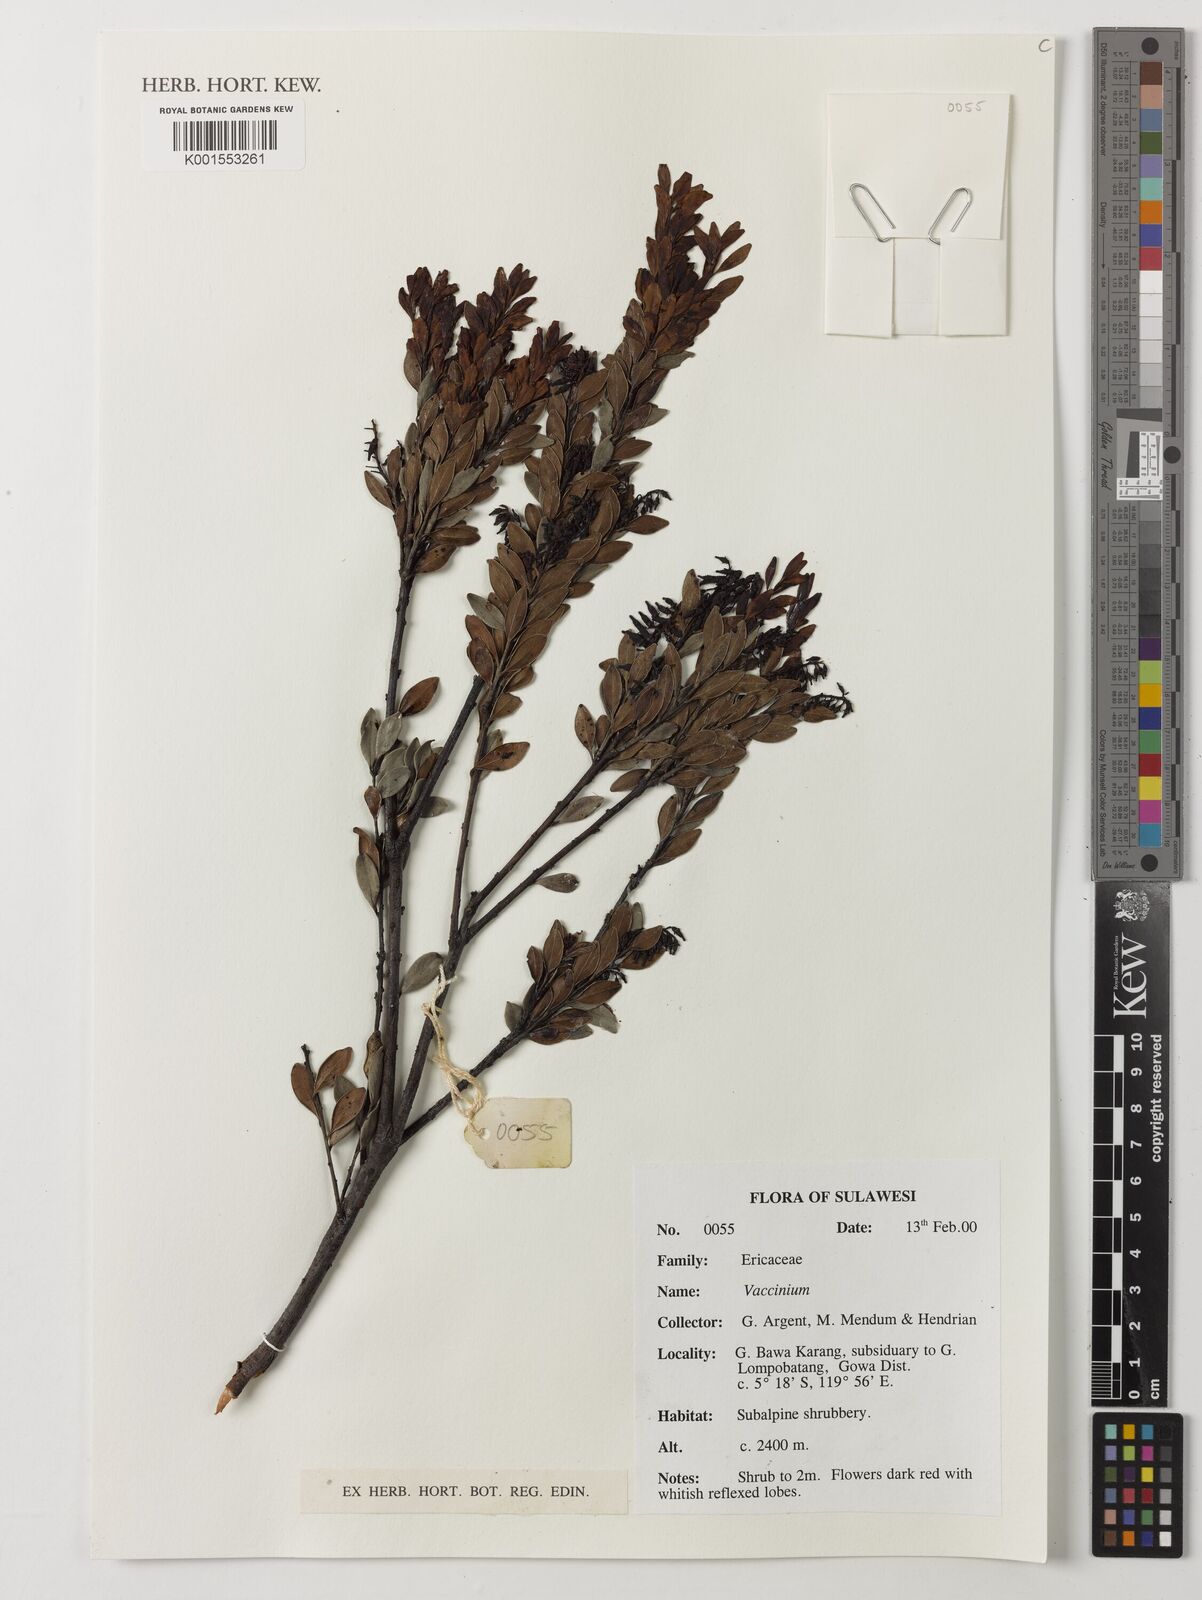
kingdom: Plantae
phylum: Tracheophyta
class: Magnoliopsida
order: Ericales
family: Ericaceae
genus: Vaccinium
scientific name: Vaccinium
